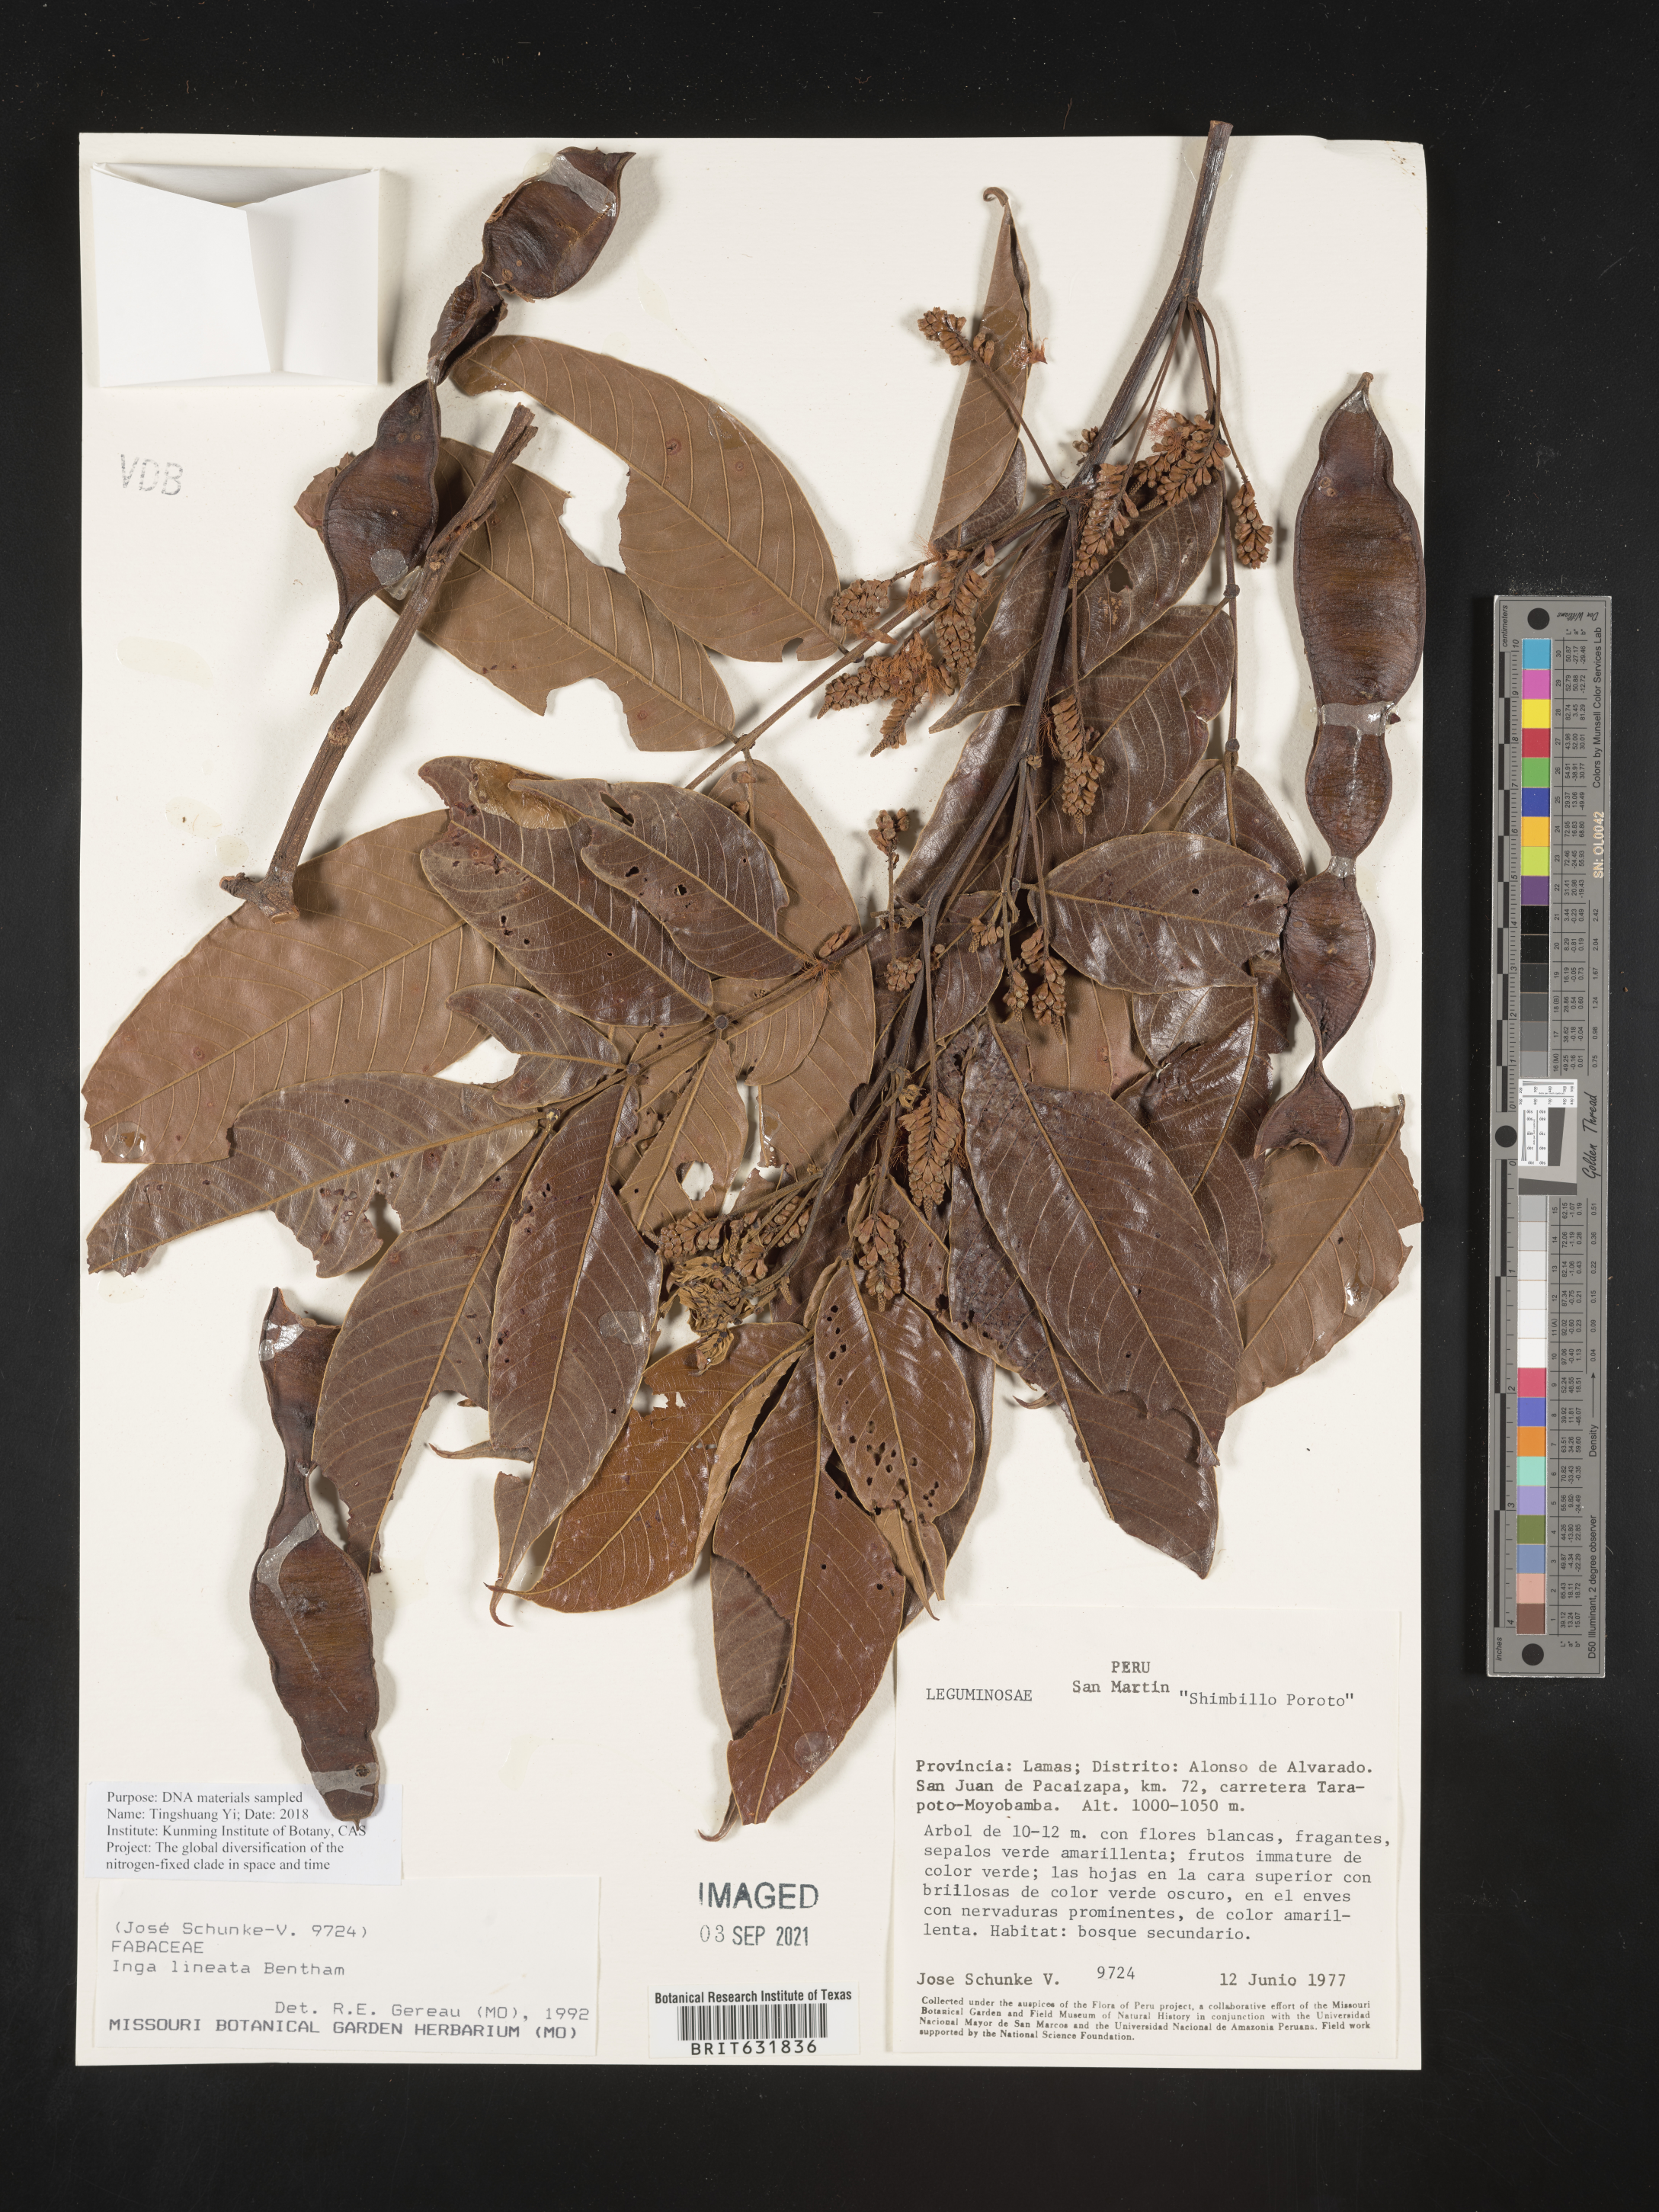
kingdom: Plantae
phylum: Tracheophyta
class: Magnoliopsida
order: Fabales
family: Fabaceae
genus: Inga
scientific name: Inga
